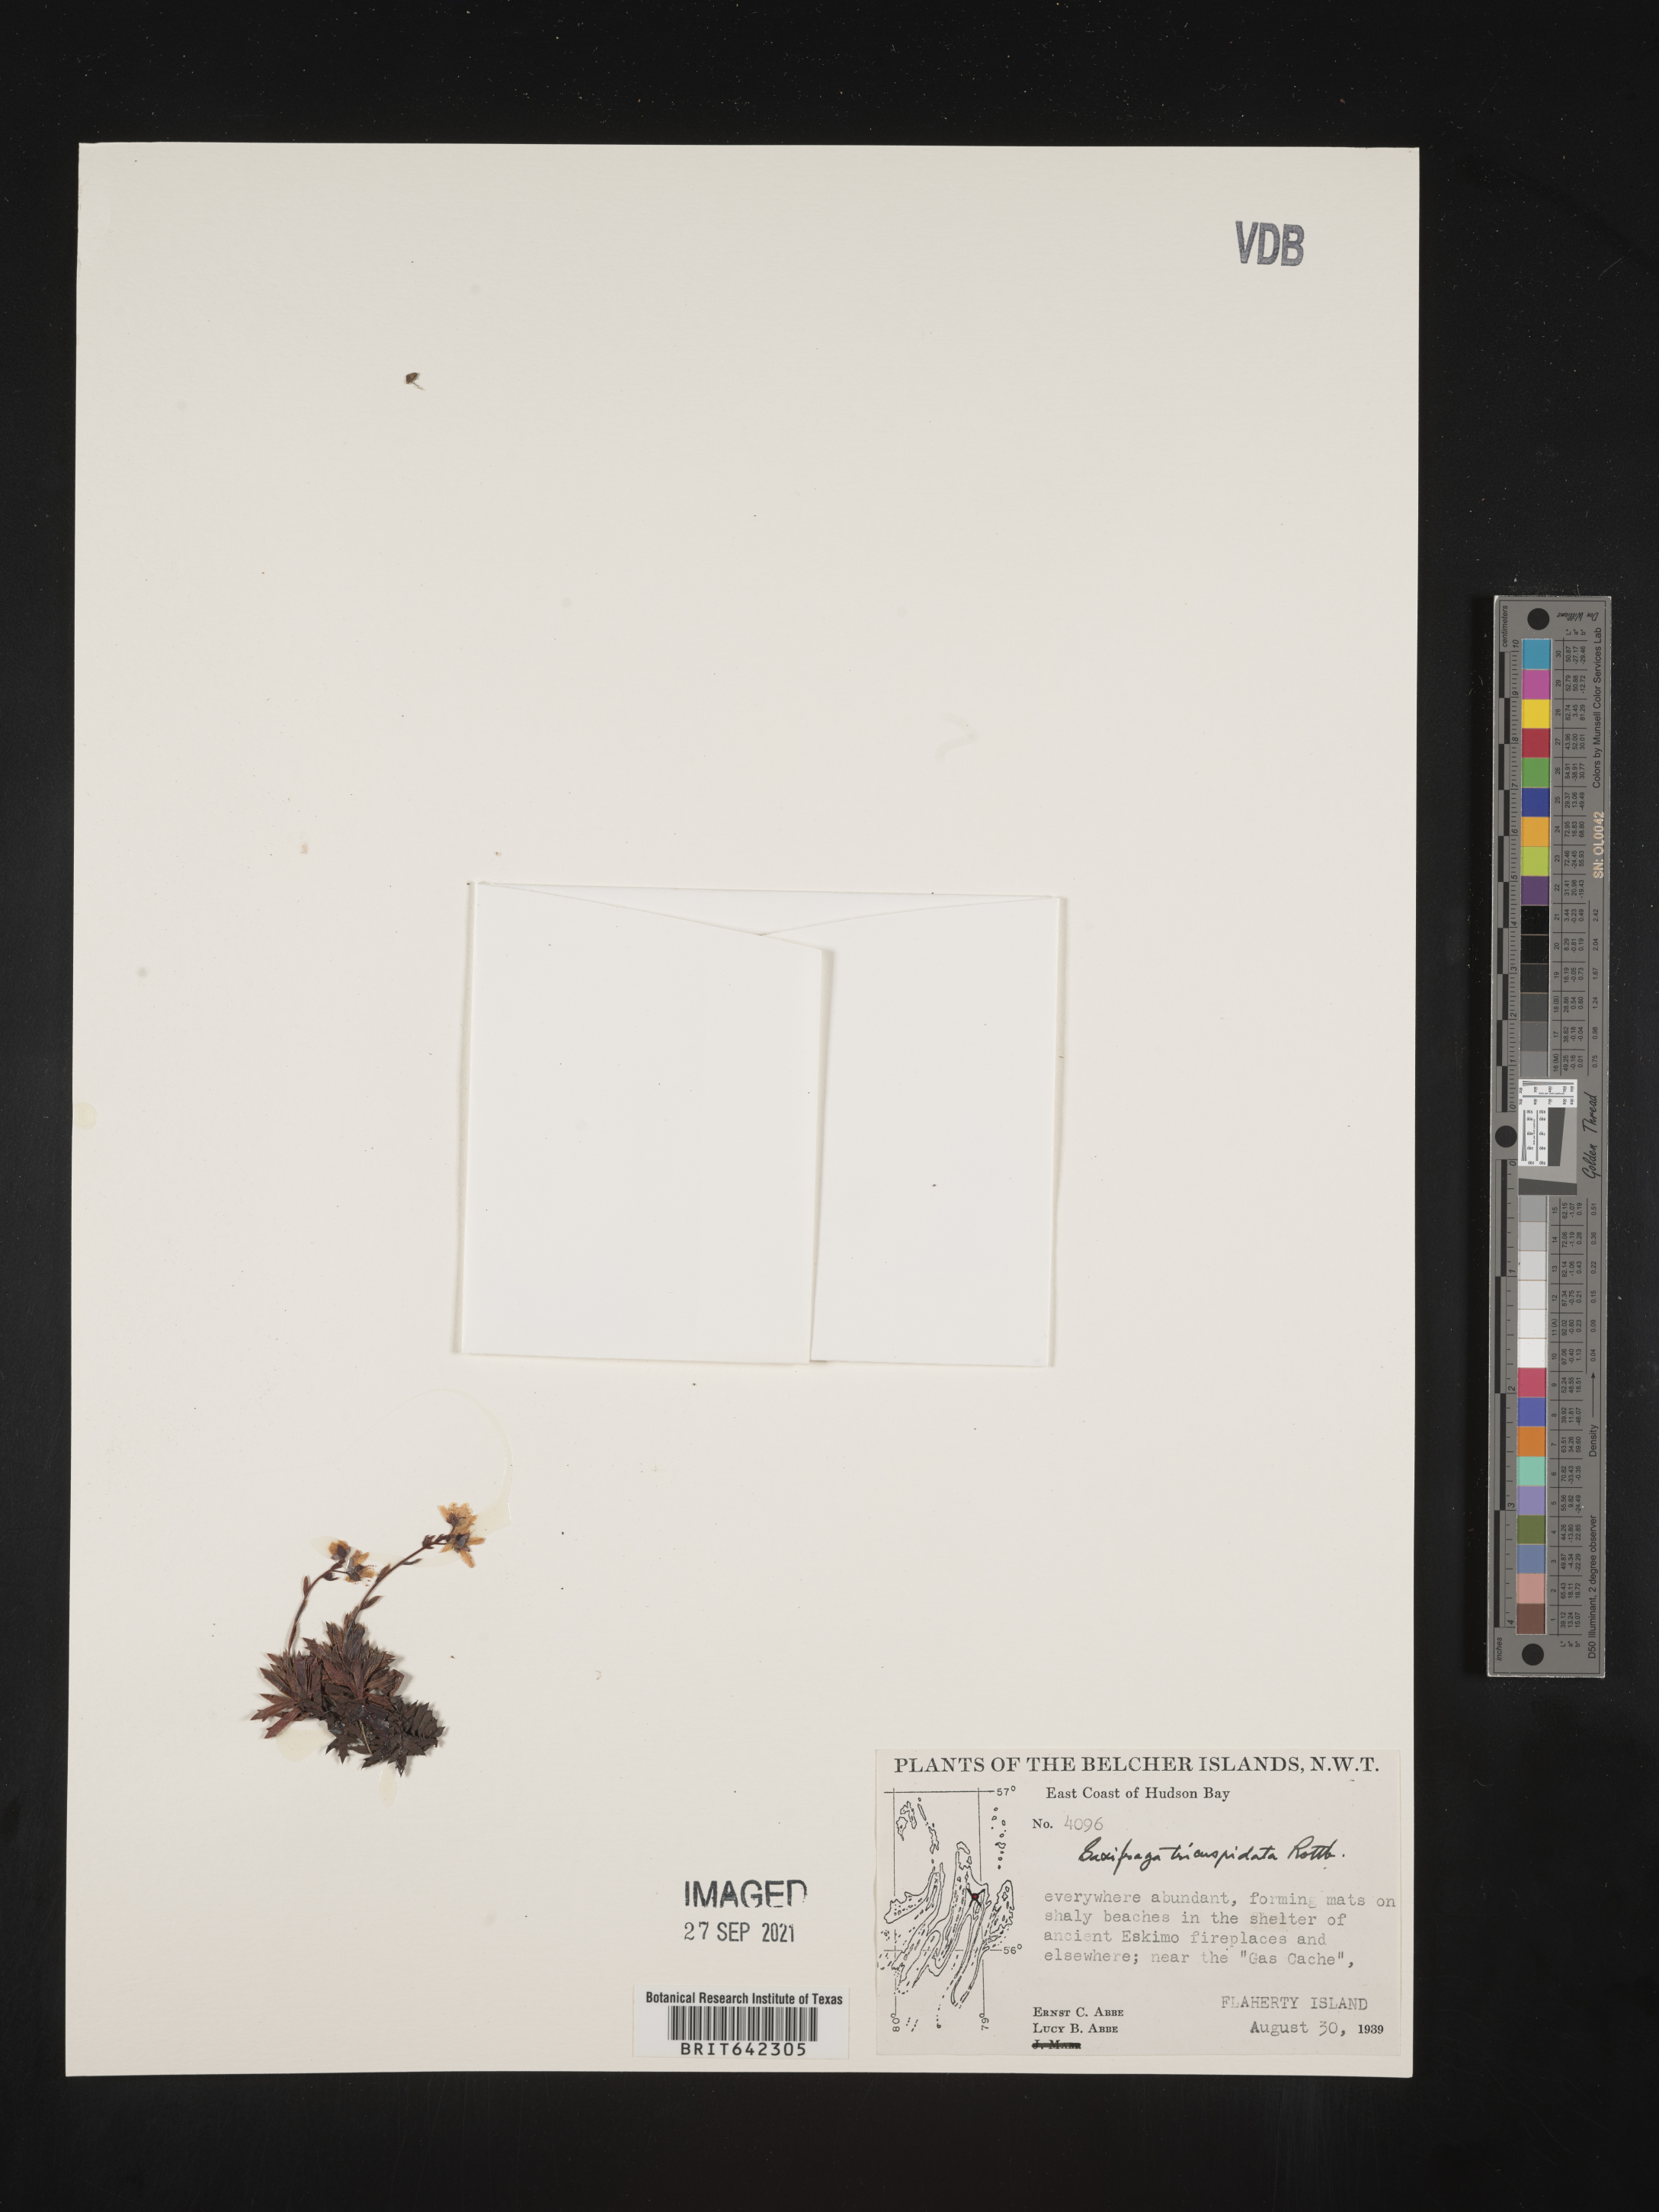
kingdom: Plantae
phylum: Tracheophyta
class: Magnoliopsida
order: Saxifragales
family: Saxifragaceae
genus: Saxifraga
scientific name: Saxifraga
